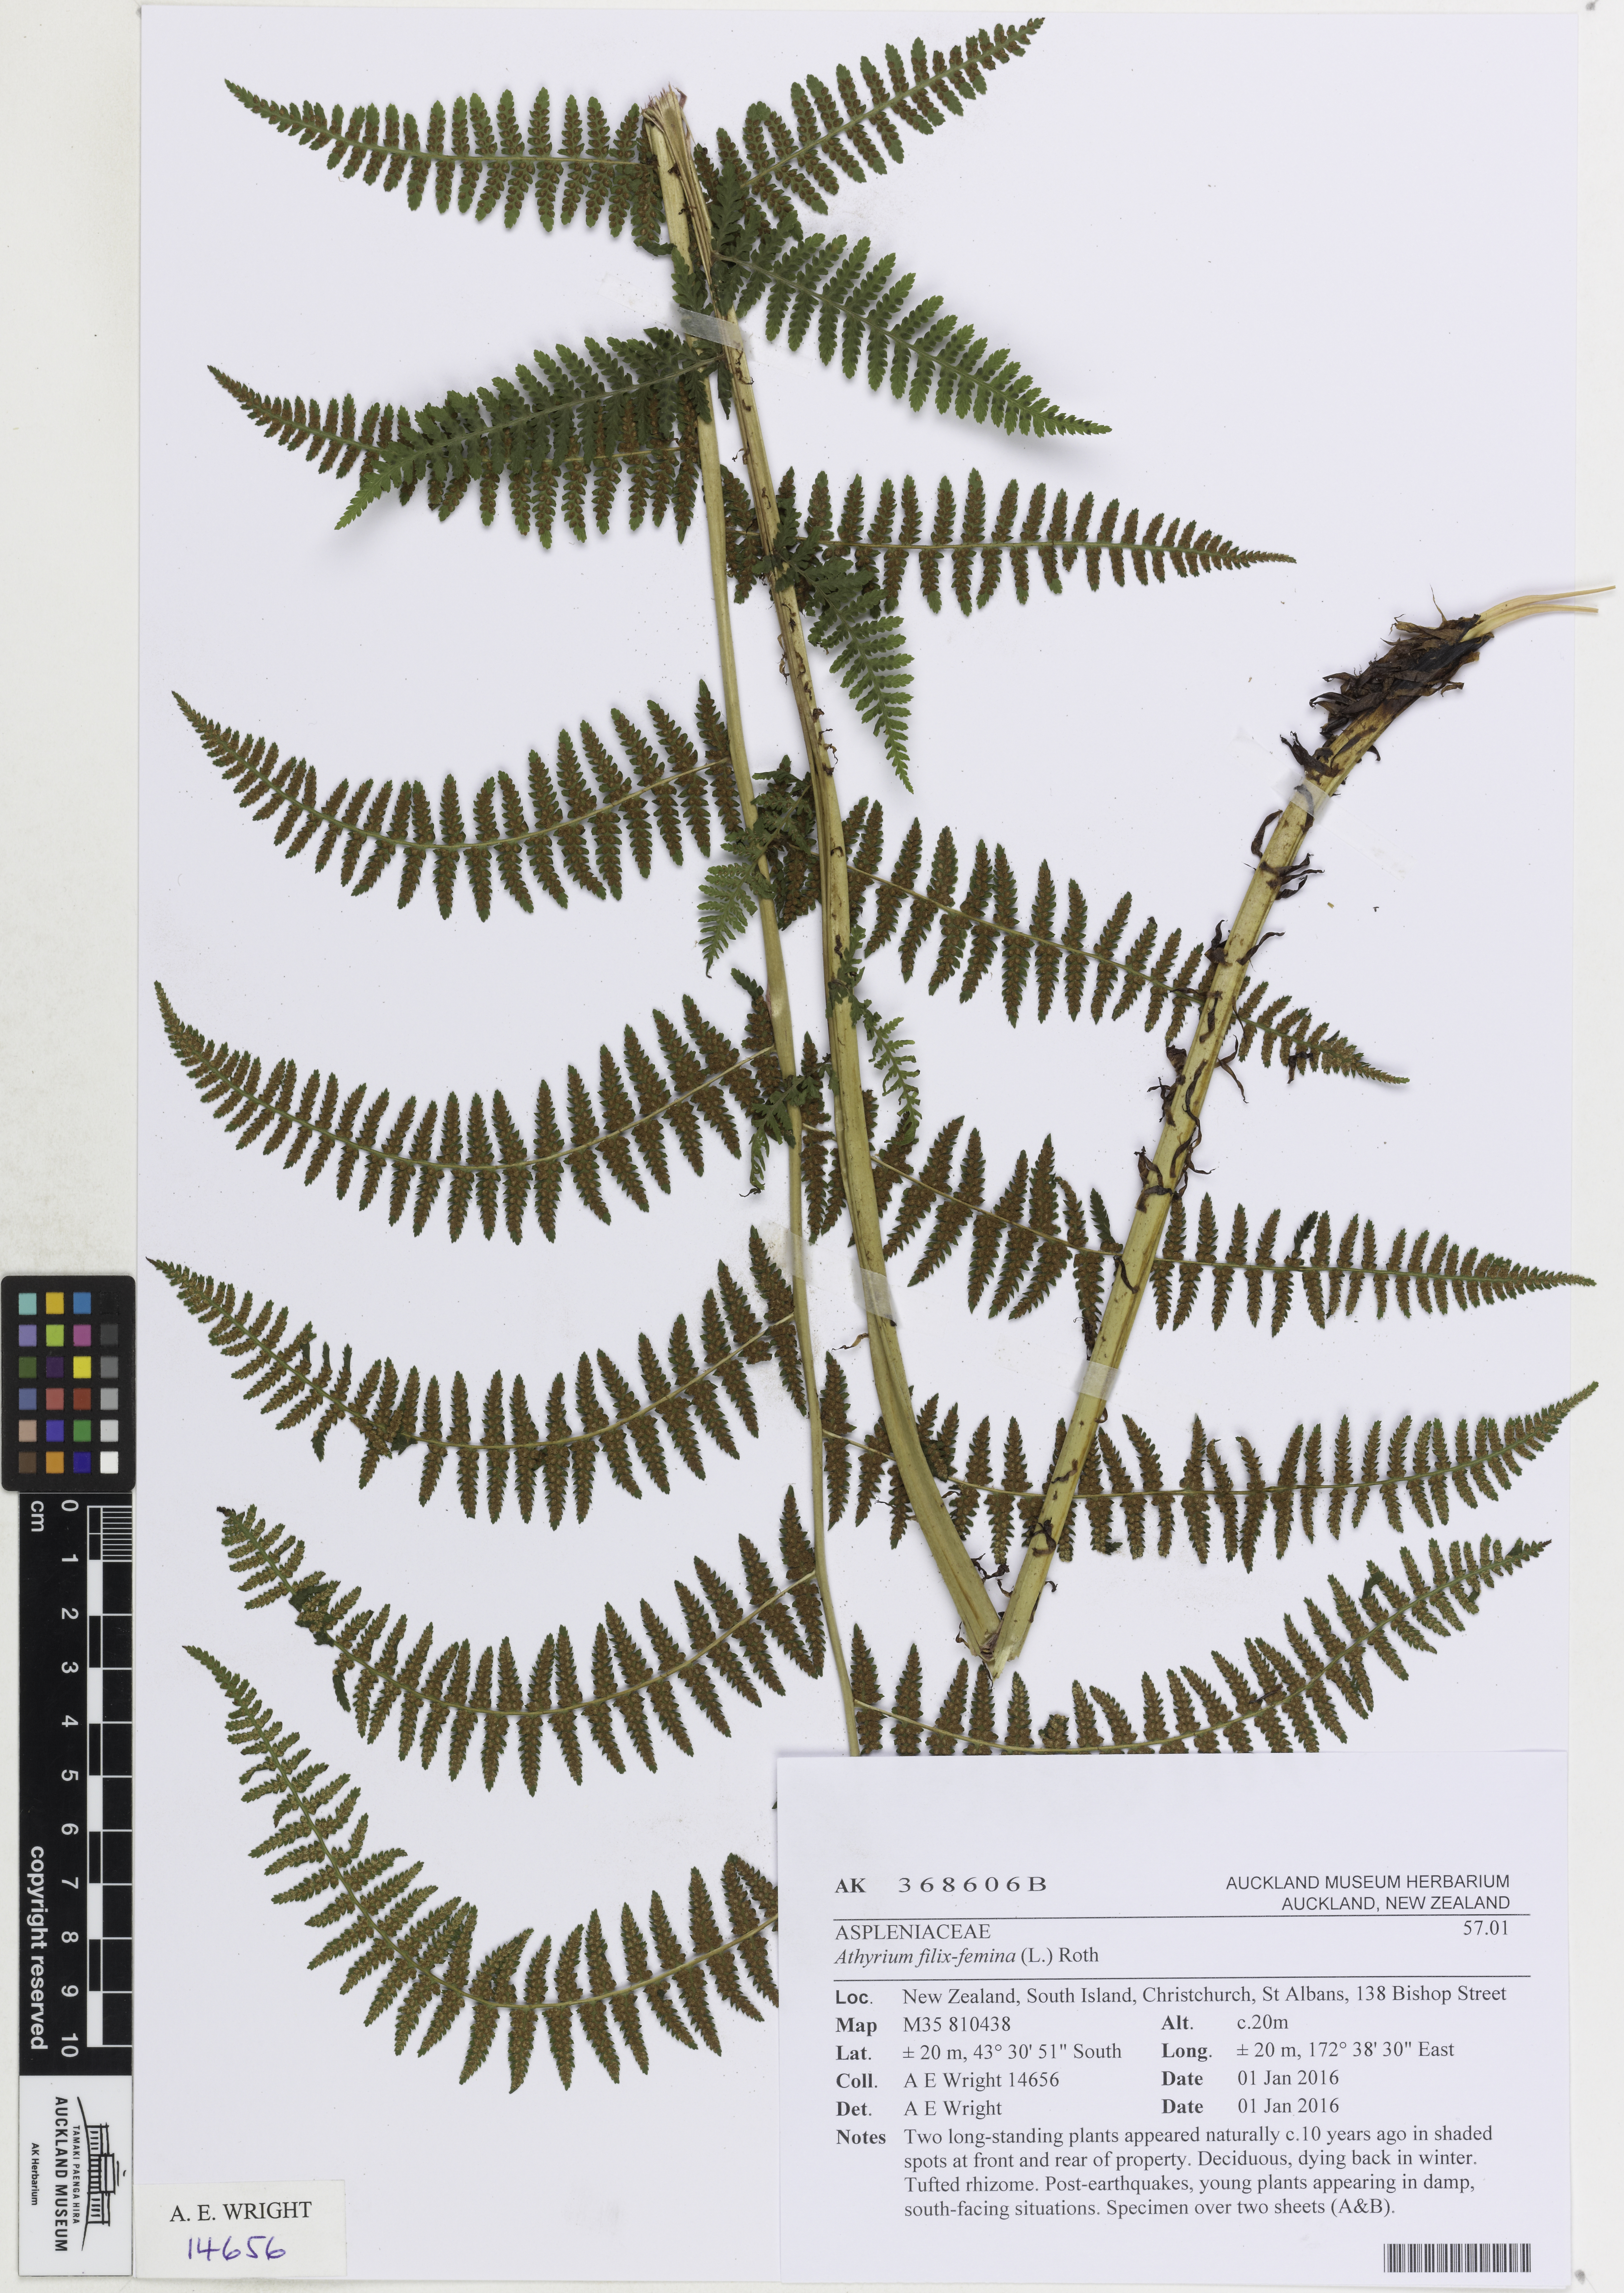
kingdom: Plantae
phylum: Tracheophyta
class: Polypodiopsida
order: Polypodiales
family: Athyriaceae
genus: Athyrium
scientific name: Athyrium filix-femina
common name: Lady fern
